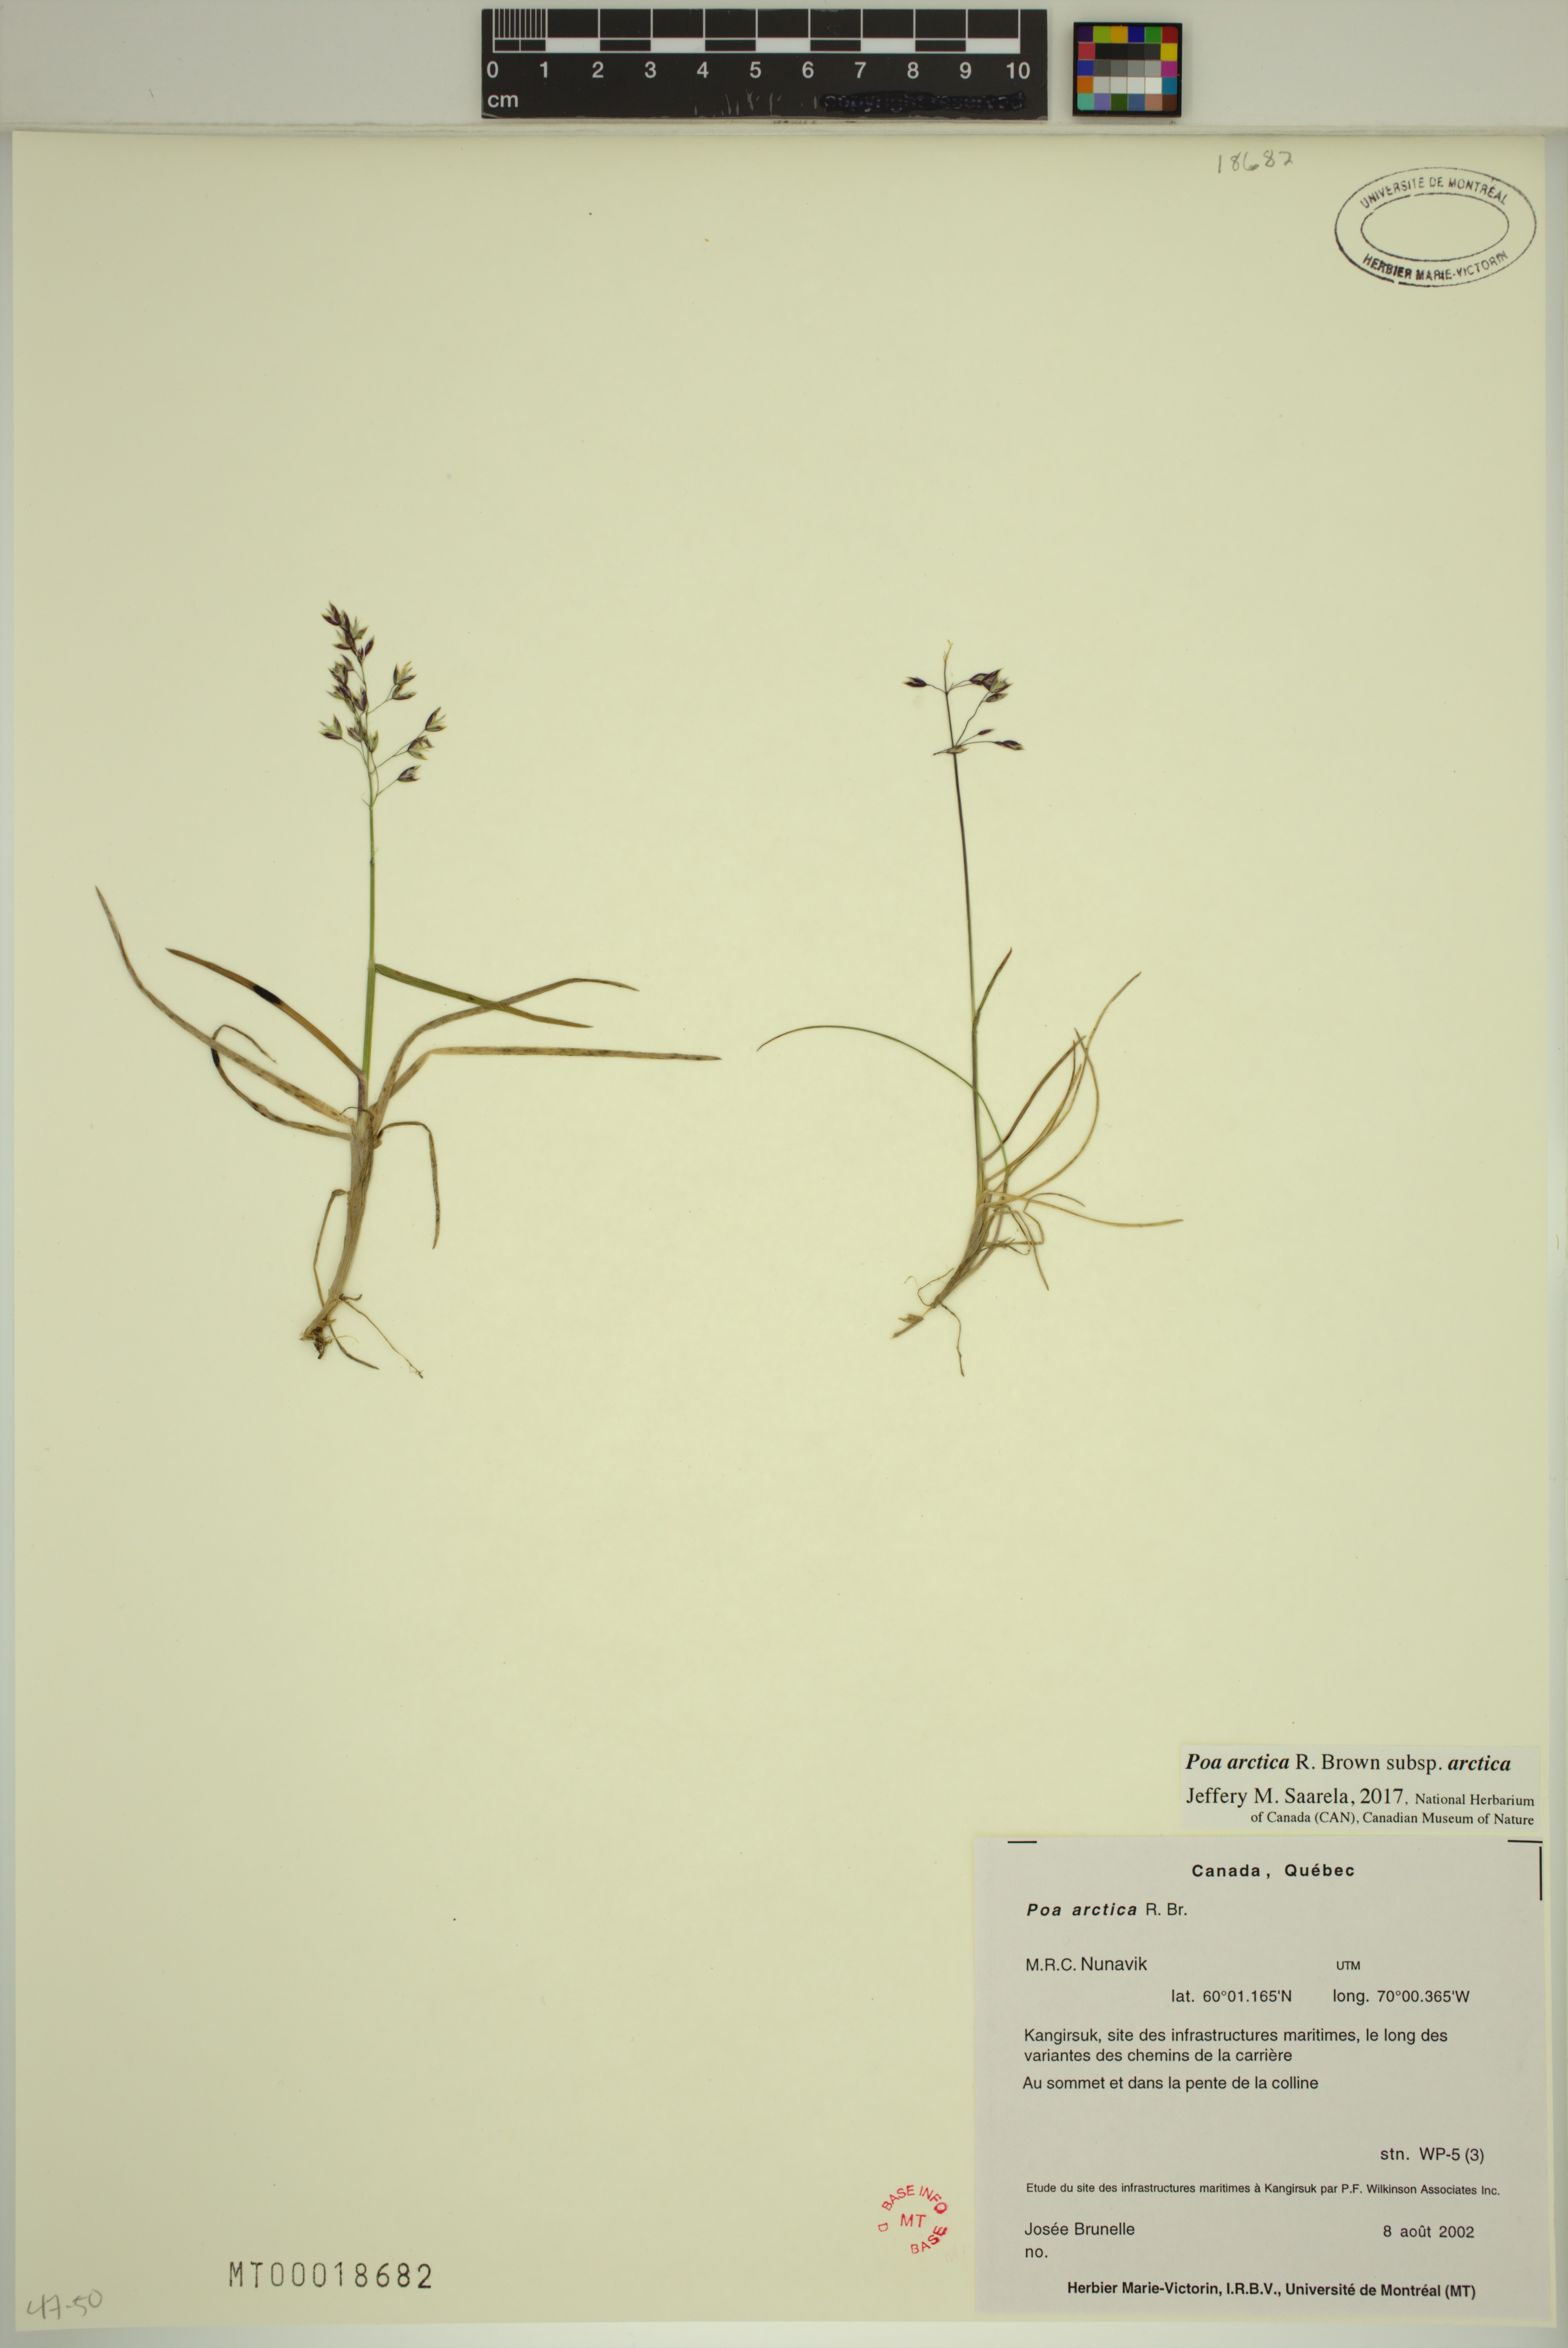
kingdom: Plantae
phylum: Tracheophyta
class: Liliopsida
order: Poales
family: Poaceae
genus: Poa
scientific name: Poa arctica
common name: Arctic bluegrass
